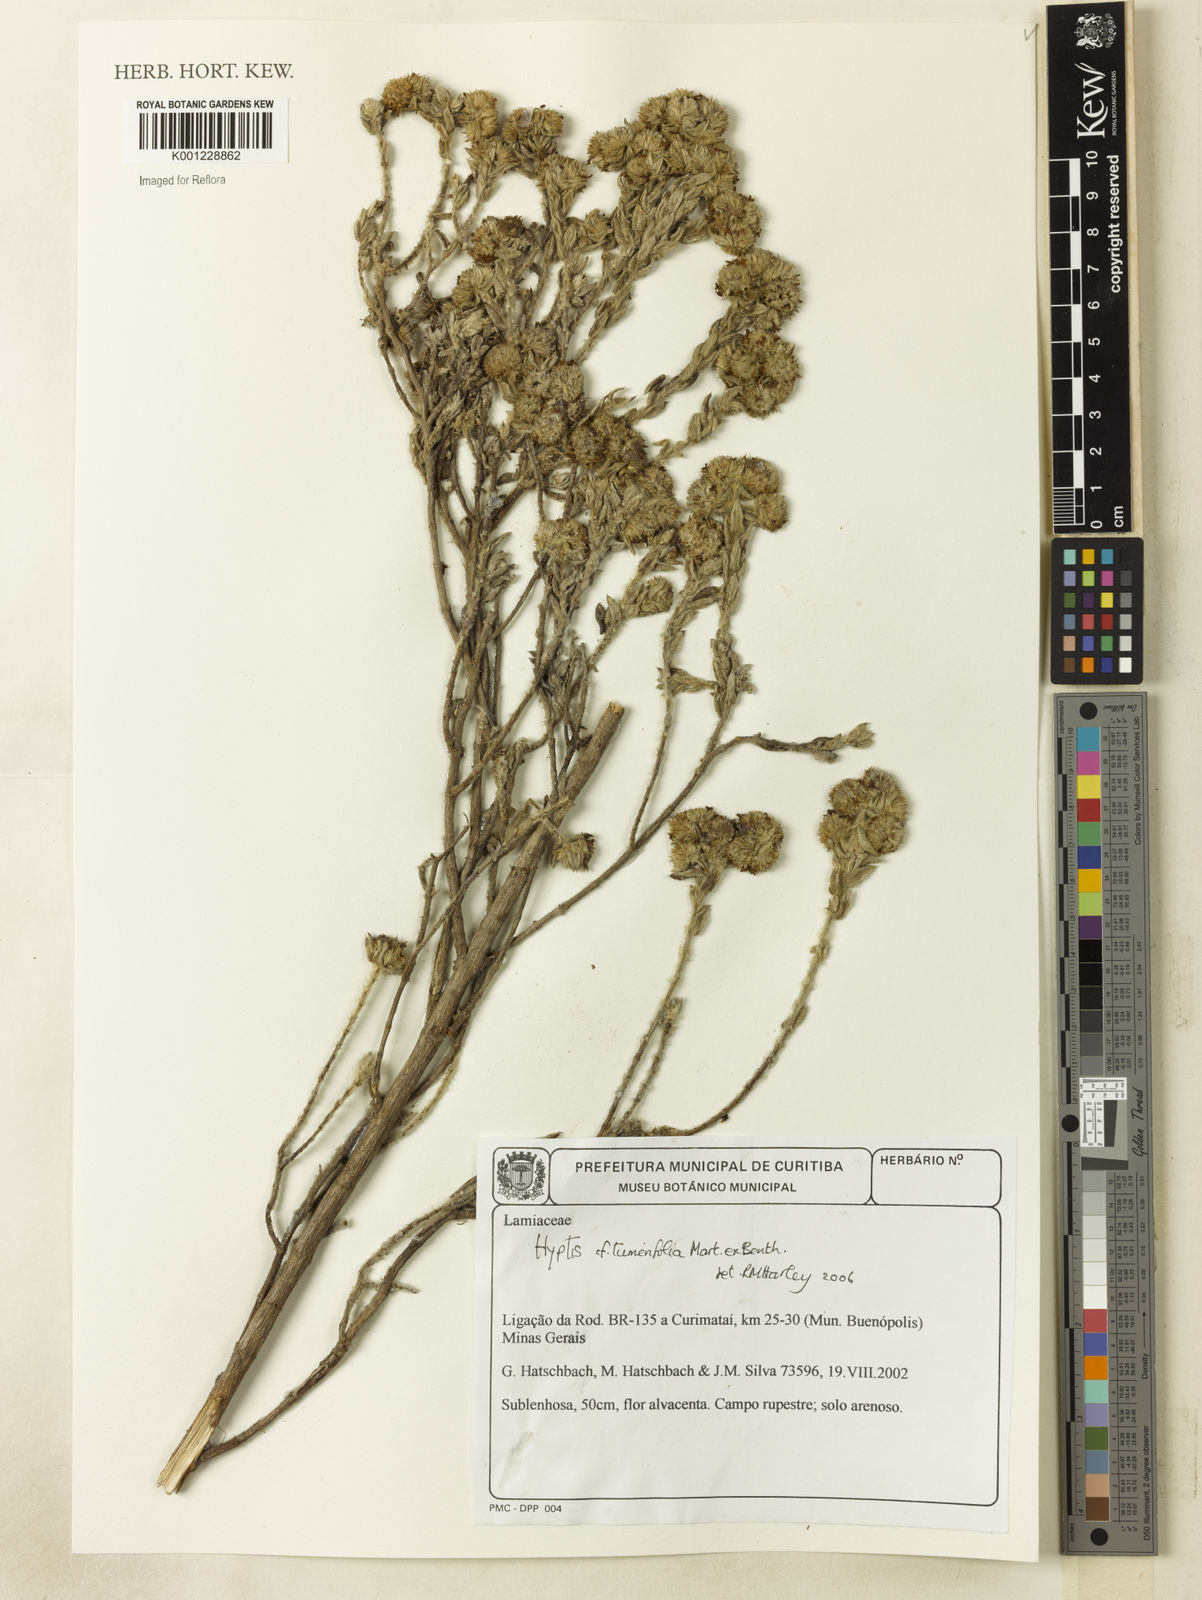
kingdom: Plantae
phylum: Tracheophyta
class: Magnoliopsida
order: Lamiales
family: Lamiaceae
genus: Hyptis
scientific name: Hyptis turnerifolia
